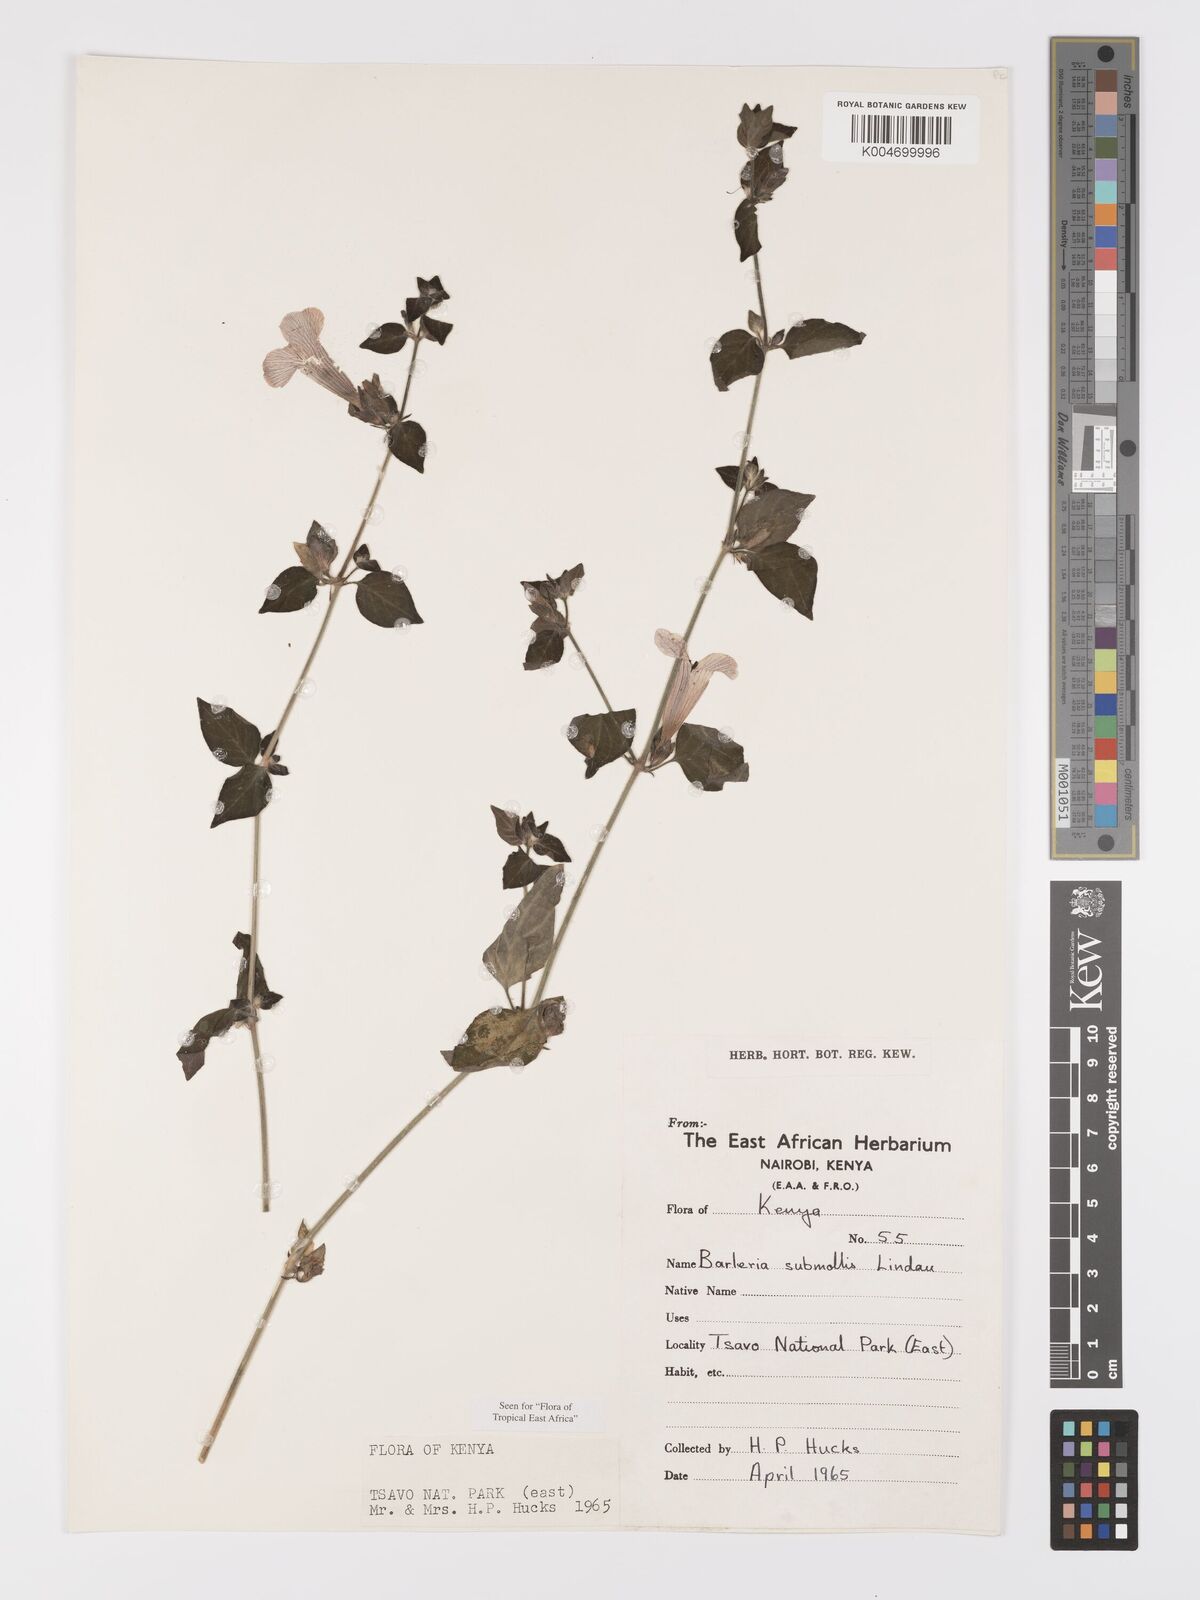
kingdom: Plantae
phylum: Tracheophyta
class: Magnoliopsida
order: Lamiales
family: Acanthaceae
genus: Barleria
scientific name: Barleria submollis
